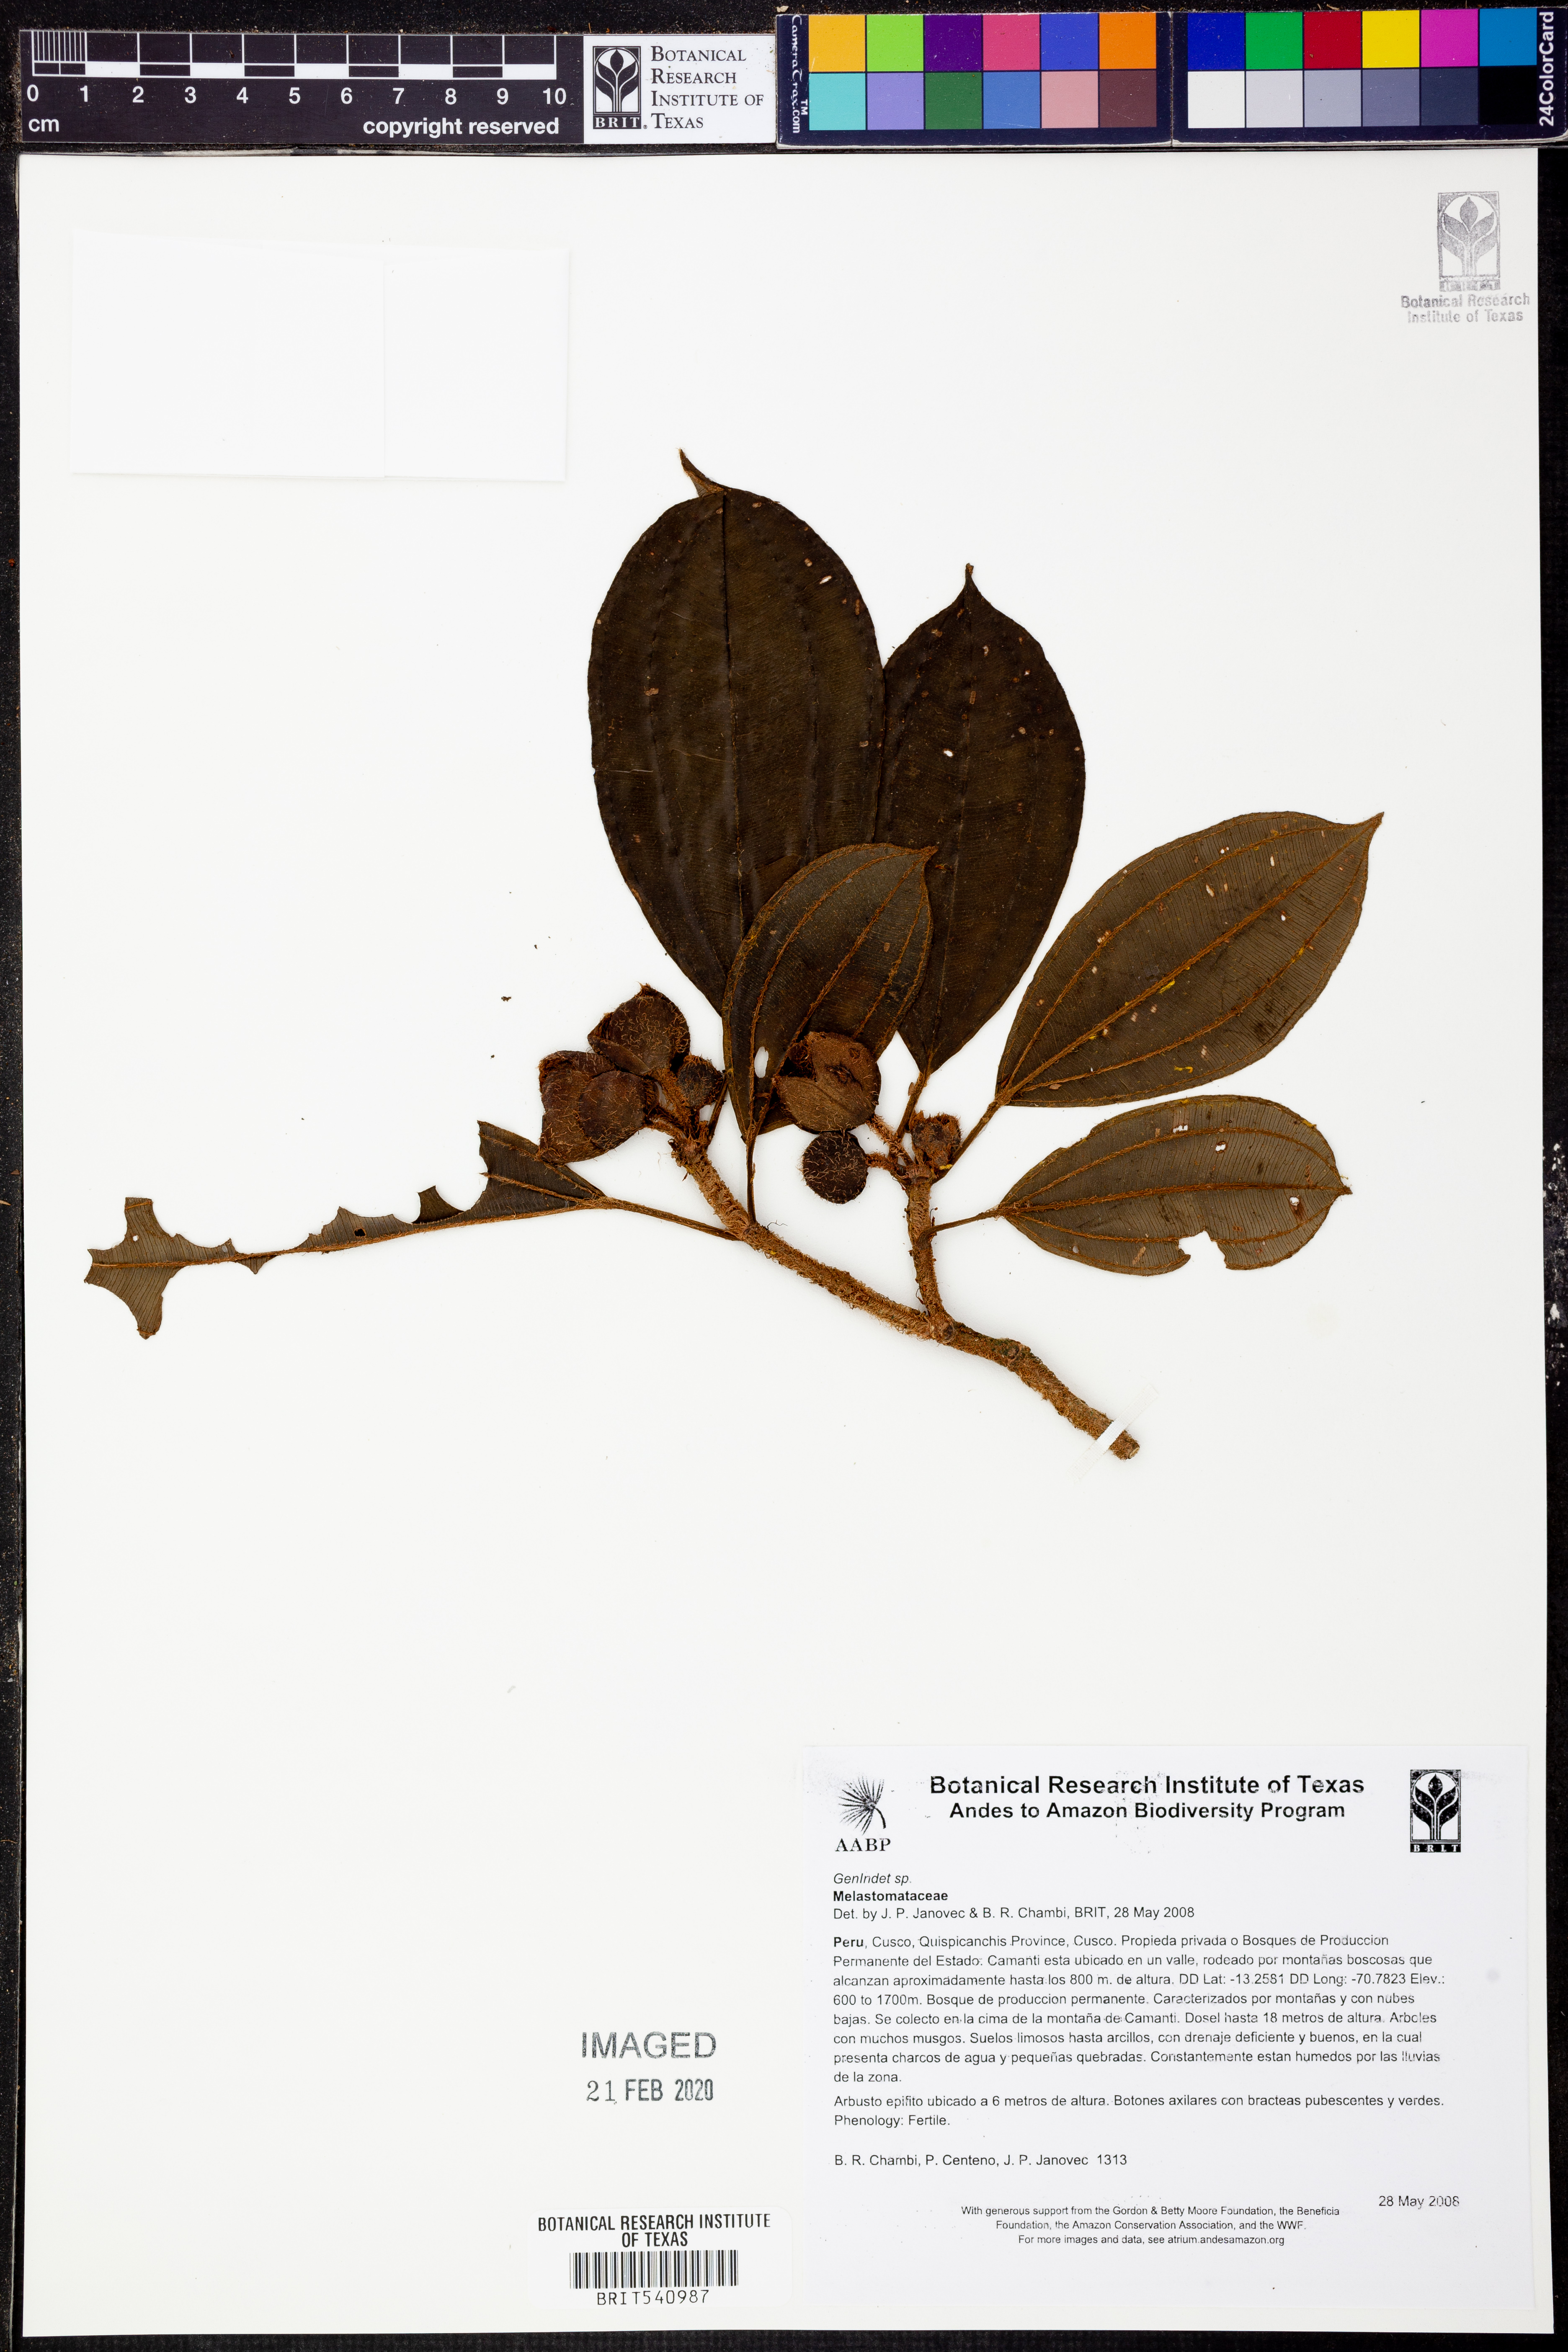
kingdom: Plantae
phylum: Tracheophyta
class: Magnoliopsida
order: Myrtales
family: Melastomataceae
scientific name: Melastomataceae
